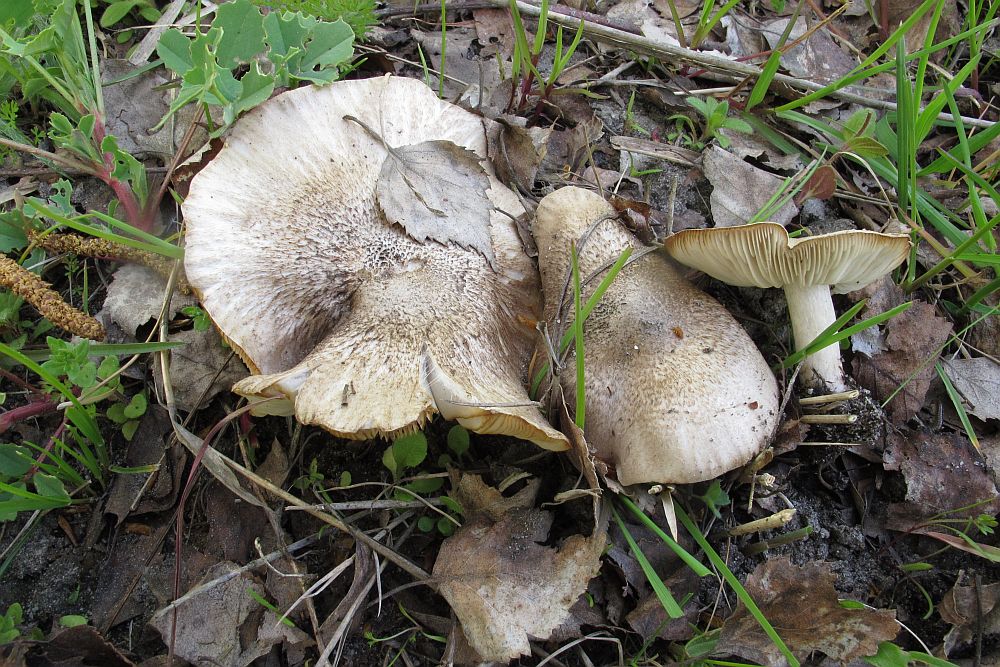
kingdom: Fungi
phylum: Basidiomycota
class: Agaricomycetes
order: Agaricales
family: Tricholomataceae
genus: Tricholoma
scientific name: Tricholoma scalpturatum
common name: gulplettet ridderhat
